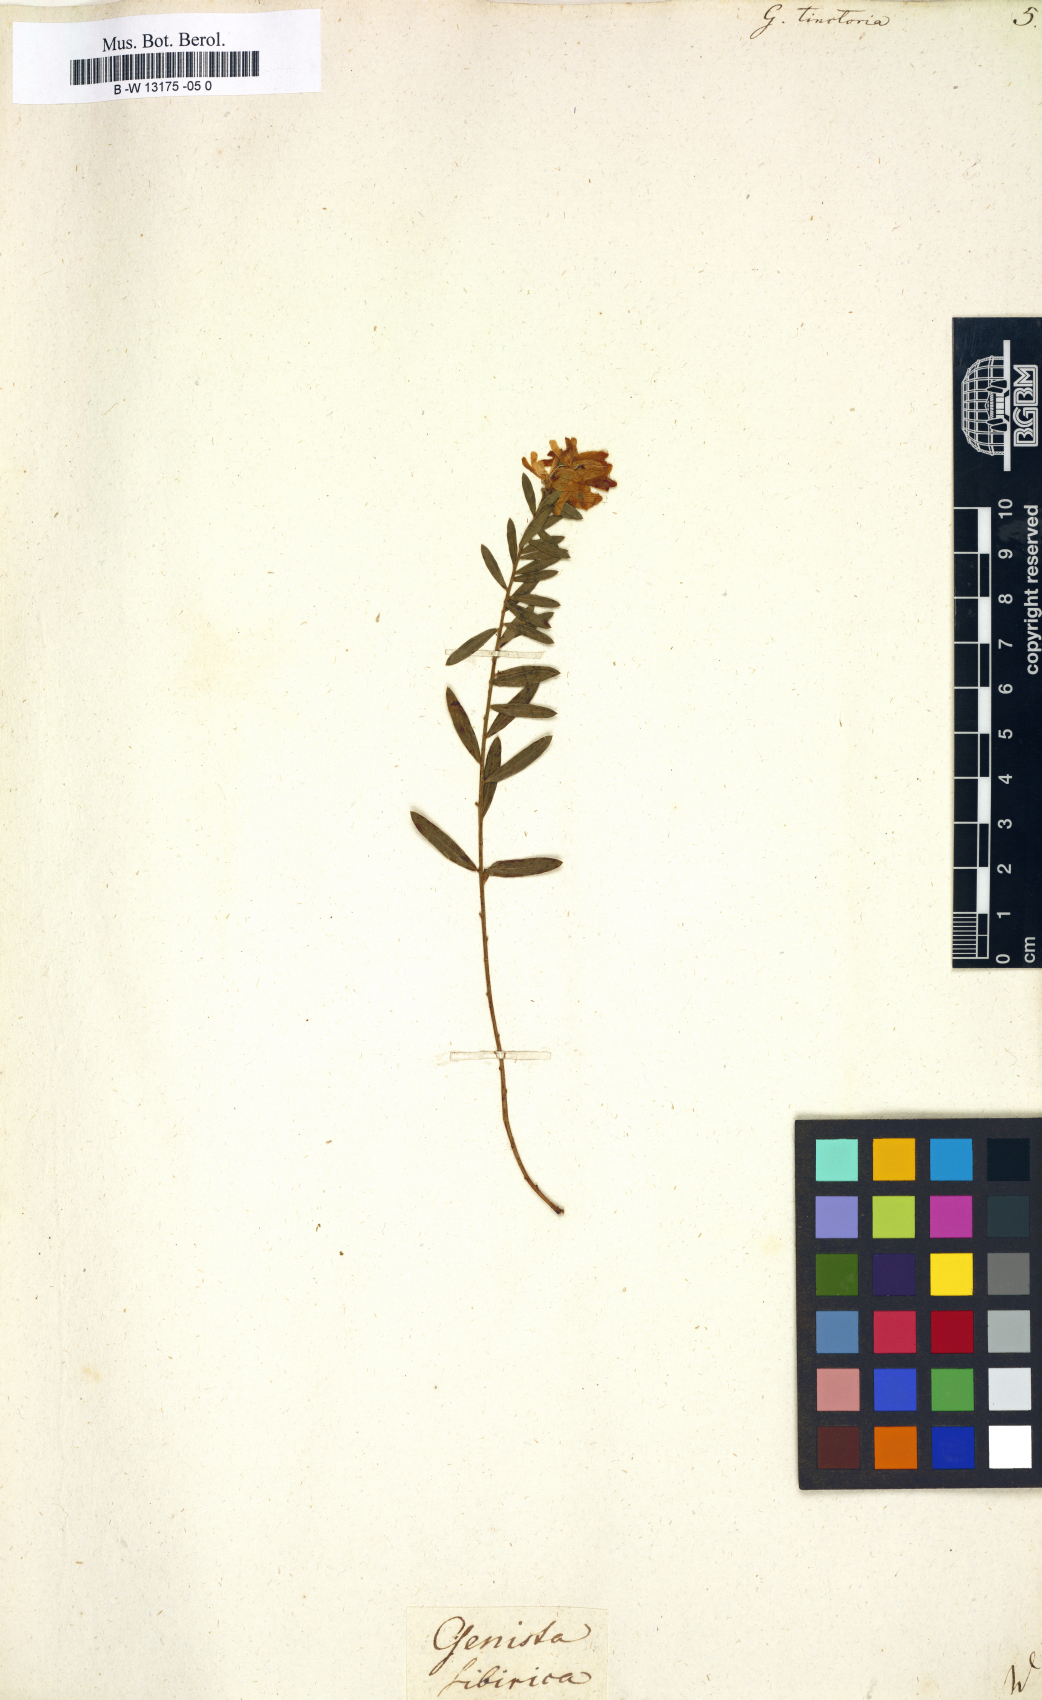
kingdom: Plantae
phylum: Tracheophyta
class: Magnoliopsida
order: Fabales
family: Fabaceae
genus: Genista
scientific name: Genista tinctoria
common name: Dyer's greenweed
